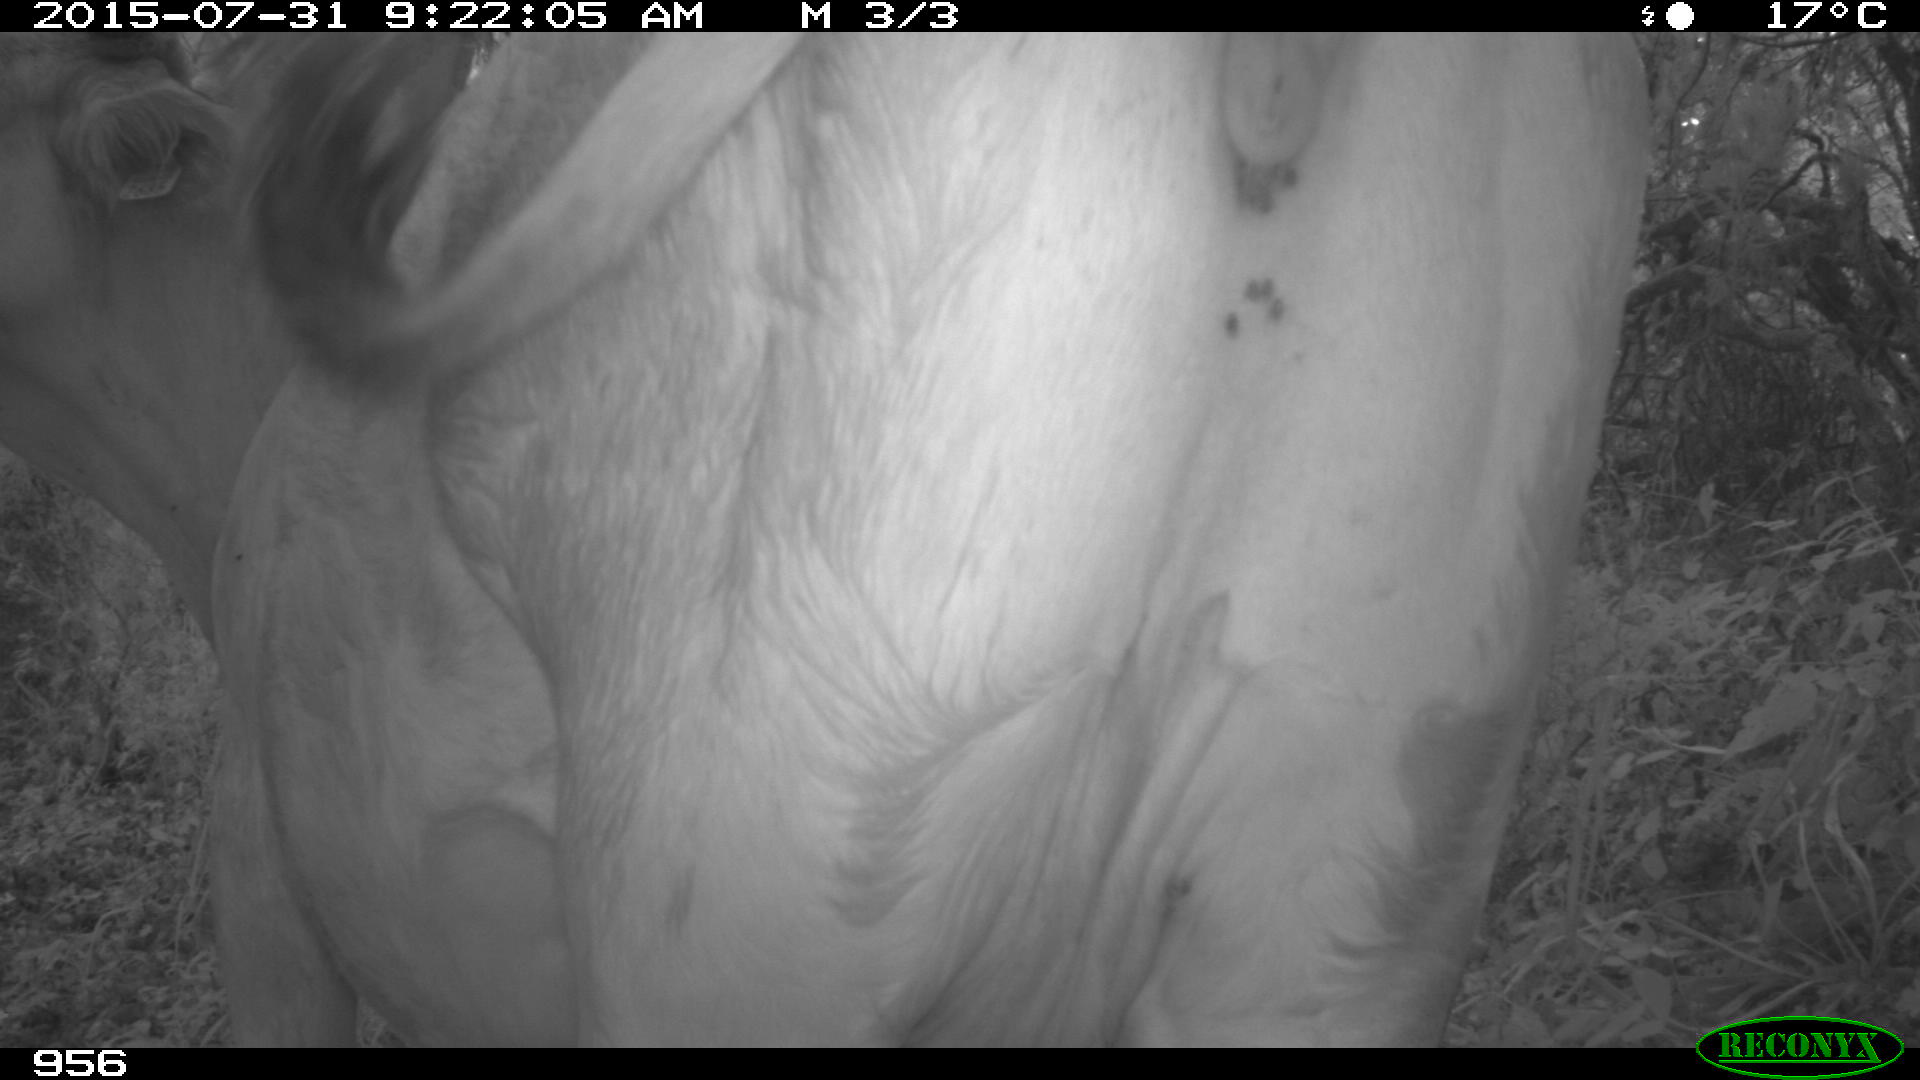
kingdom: Animalia
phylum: Chordata
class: Mammalia
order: Artiodactyla
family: Bovidae
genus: Bos
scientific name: Bos taurus
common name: Domesticated cattle
